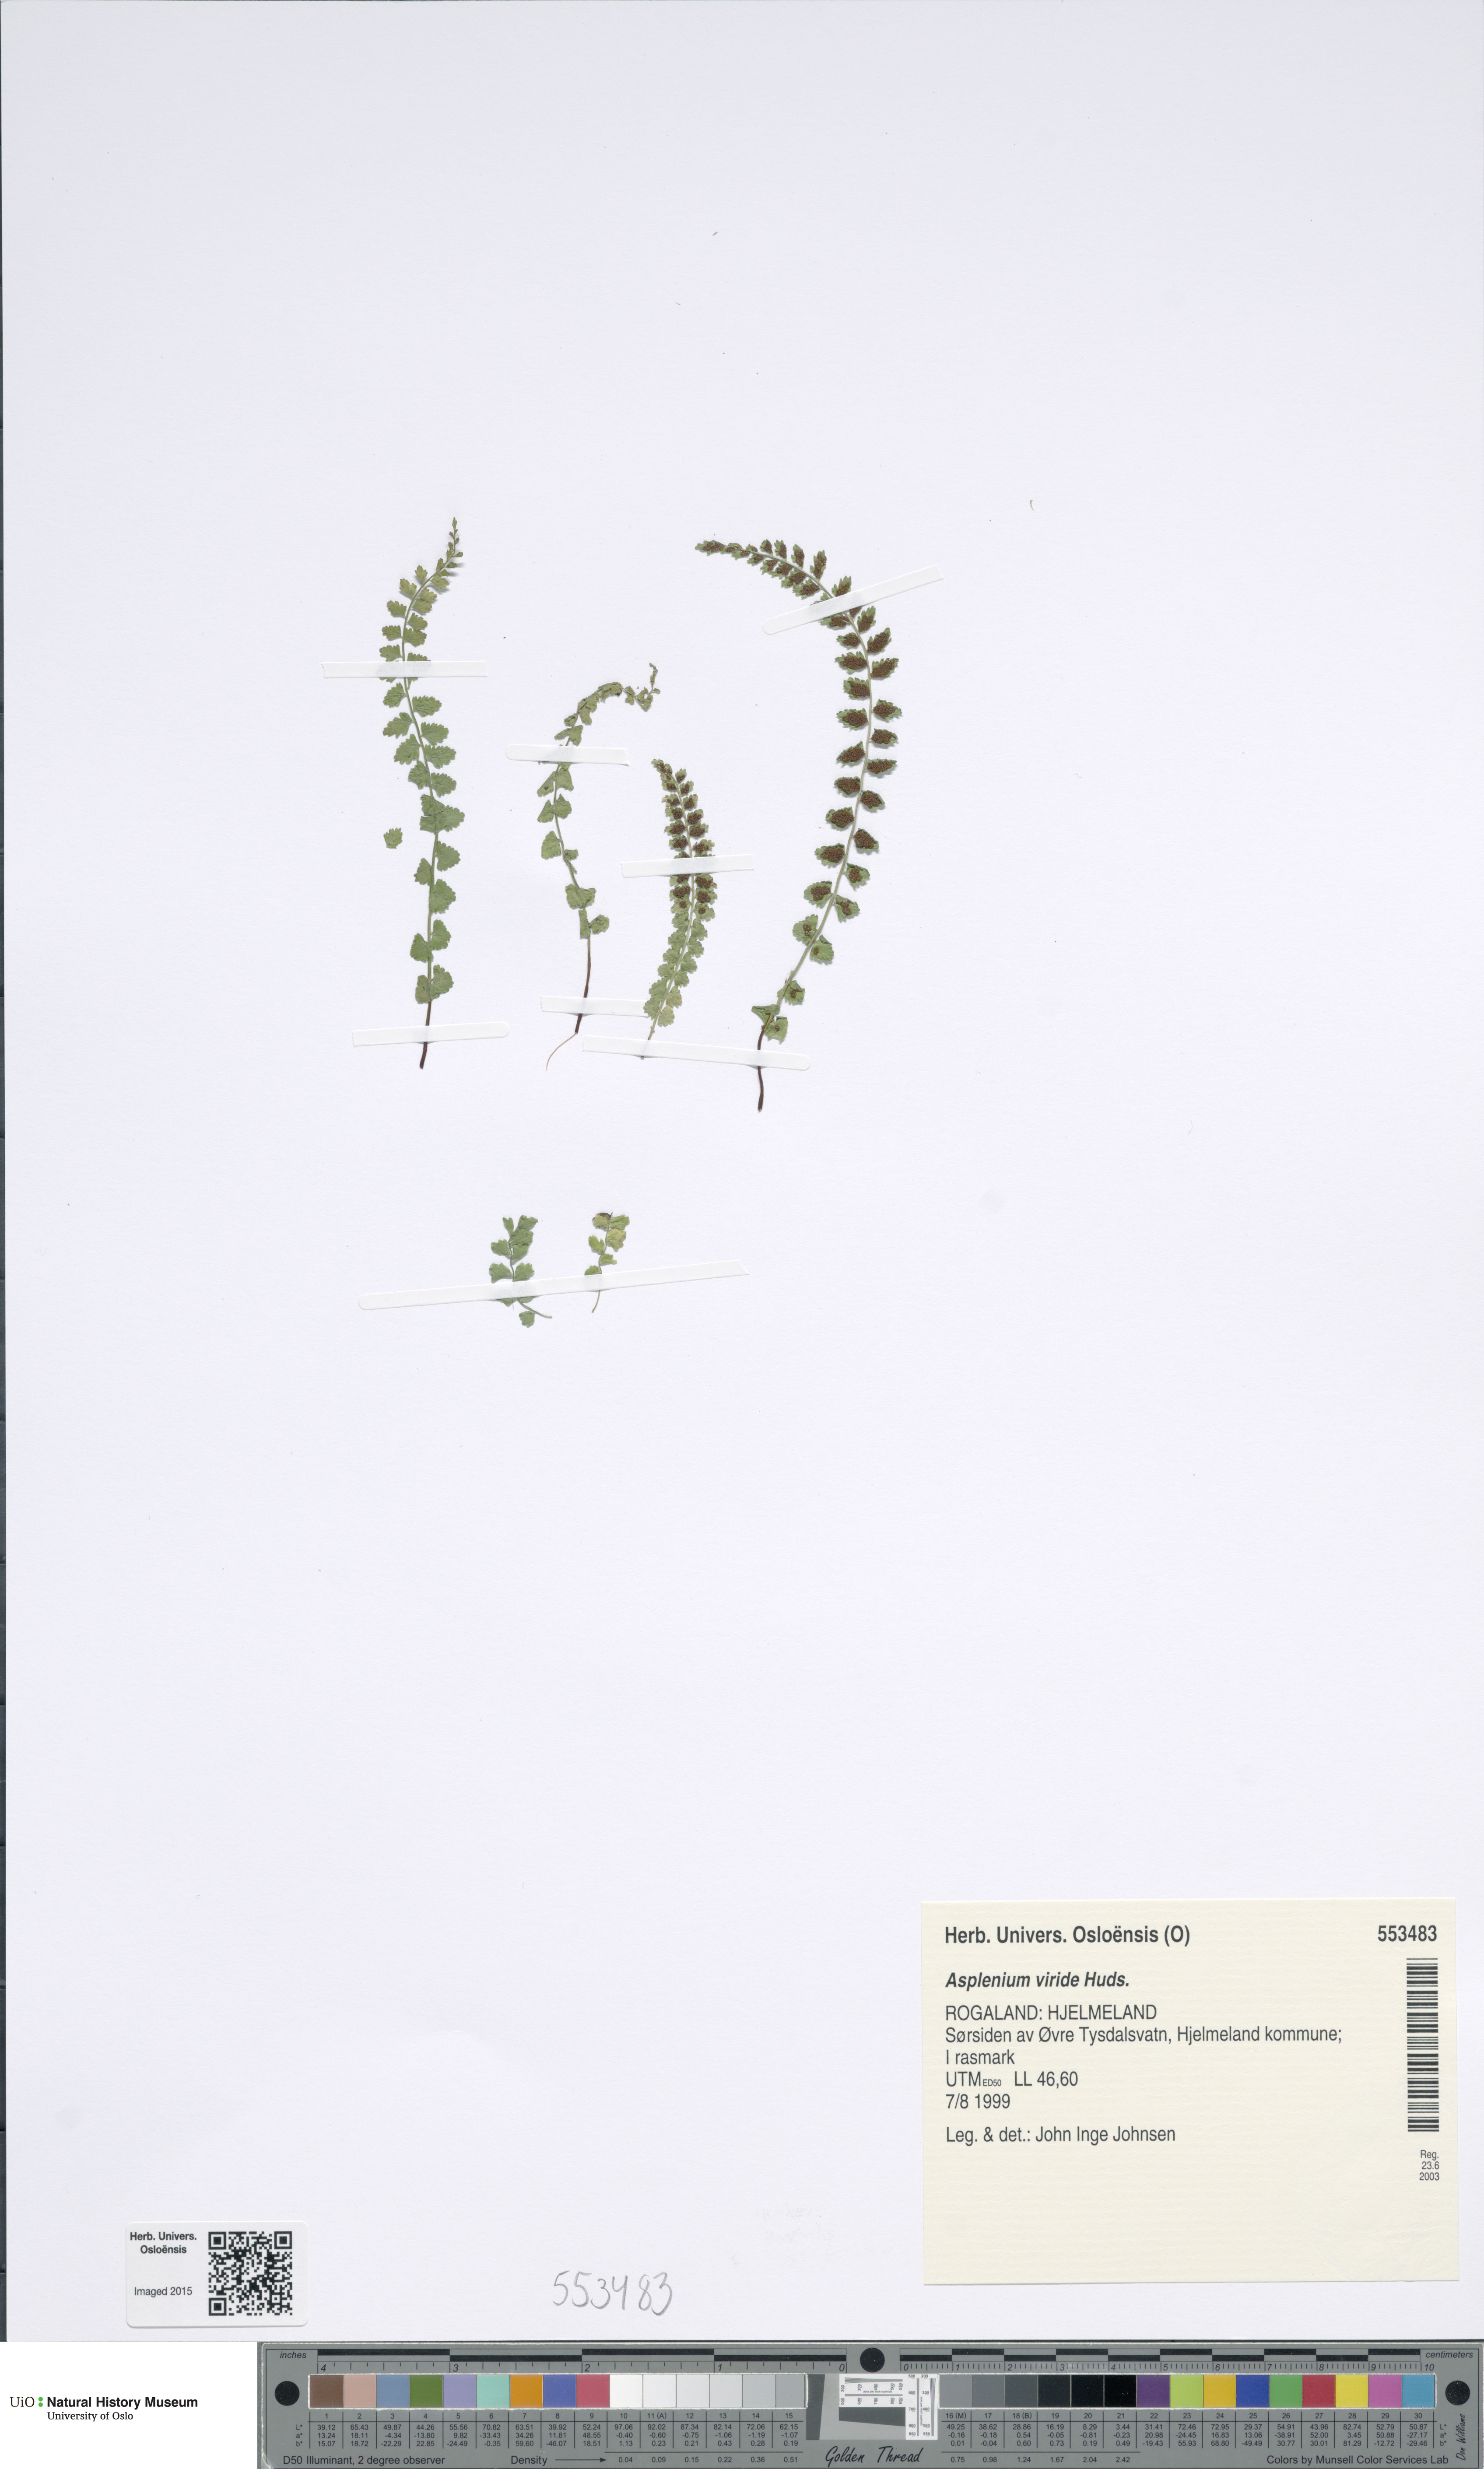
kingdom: Plantae
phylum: Tracheophyta
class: Polypodiopsida
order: Polypodiales
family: Aspleniaceae
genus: Asplenium
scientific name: Asplenium viride
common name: Green spleenwort
